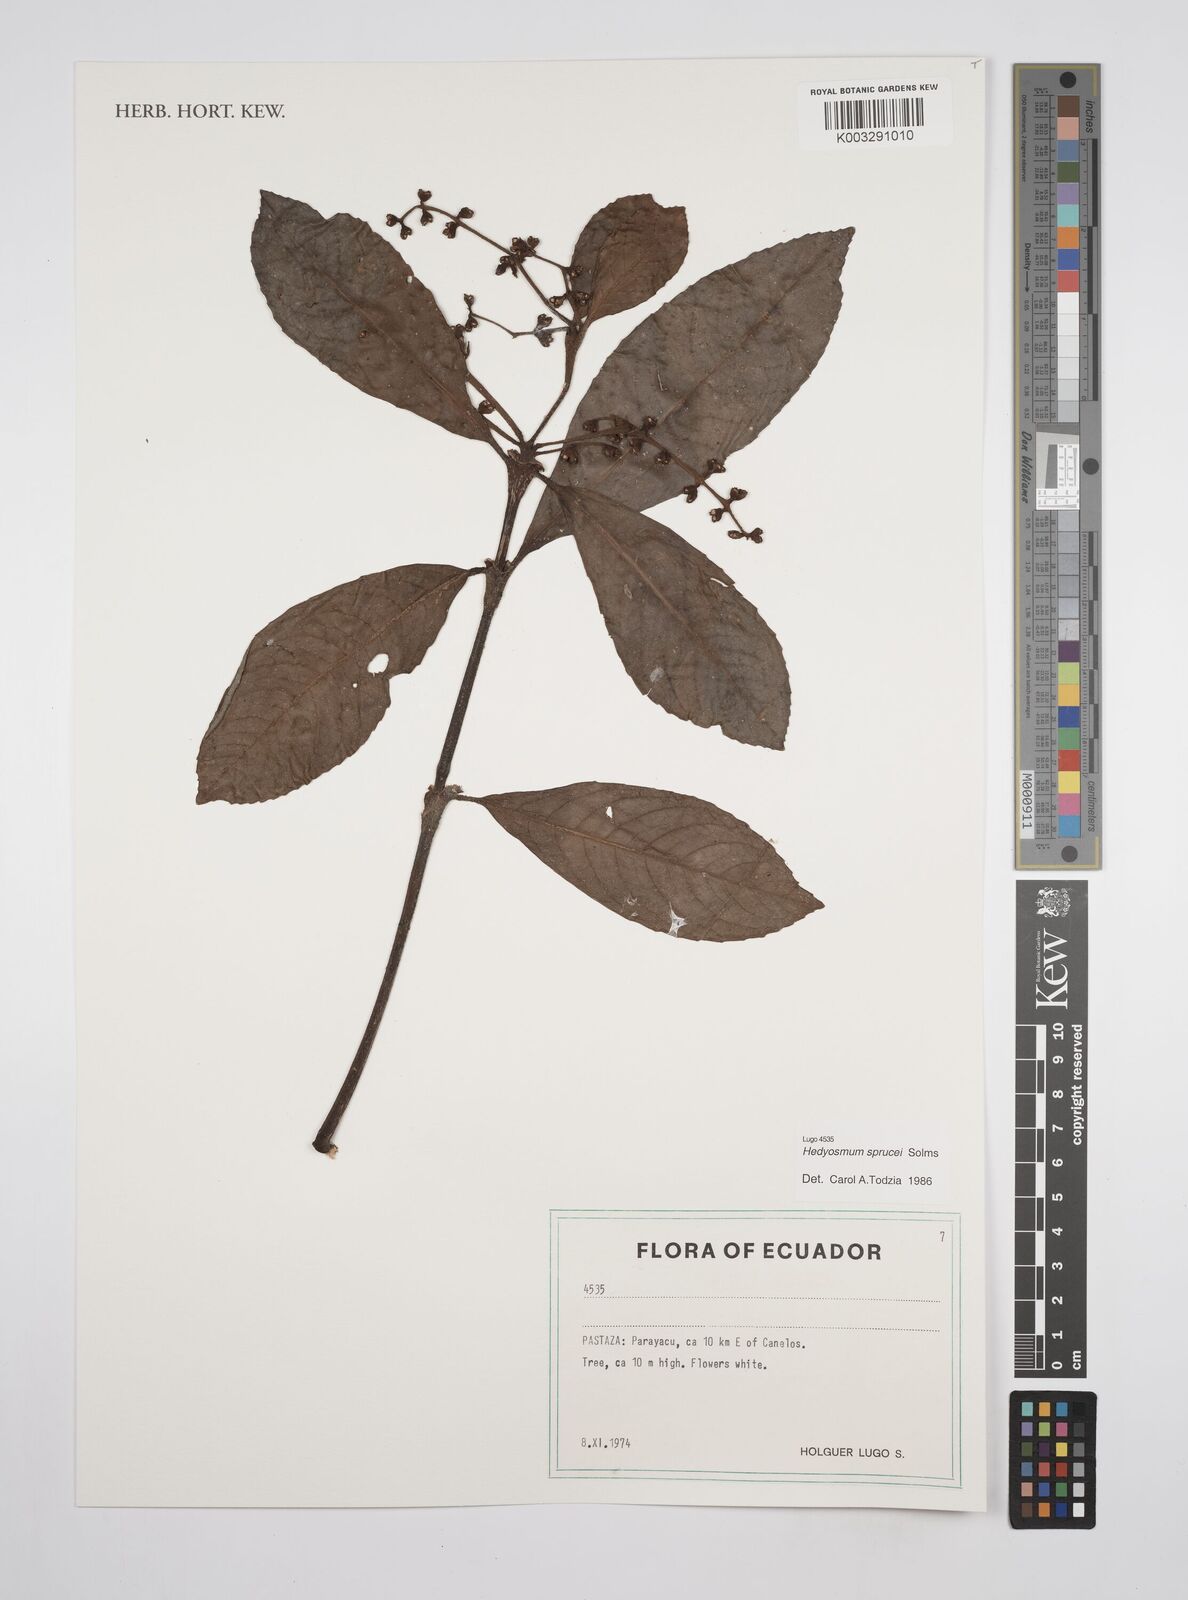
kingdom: Plantae
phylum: Tracheophyta
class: Magnoliopsida
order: Chloranthales
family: Chloranthaceae
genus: Hedyosmum
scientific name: Hedyosmum sprucei
